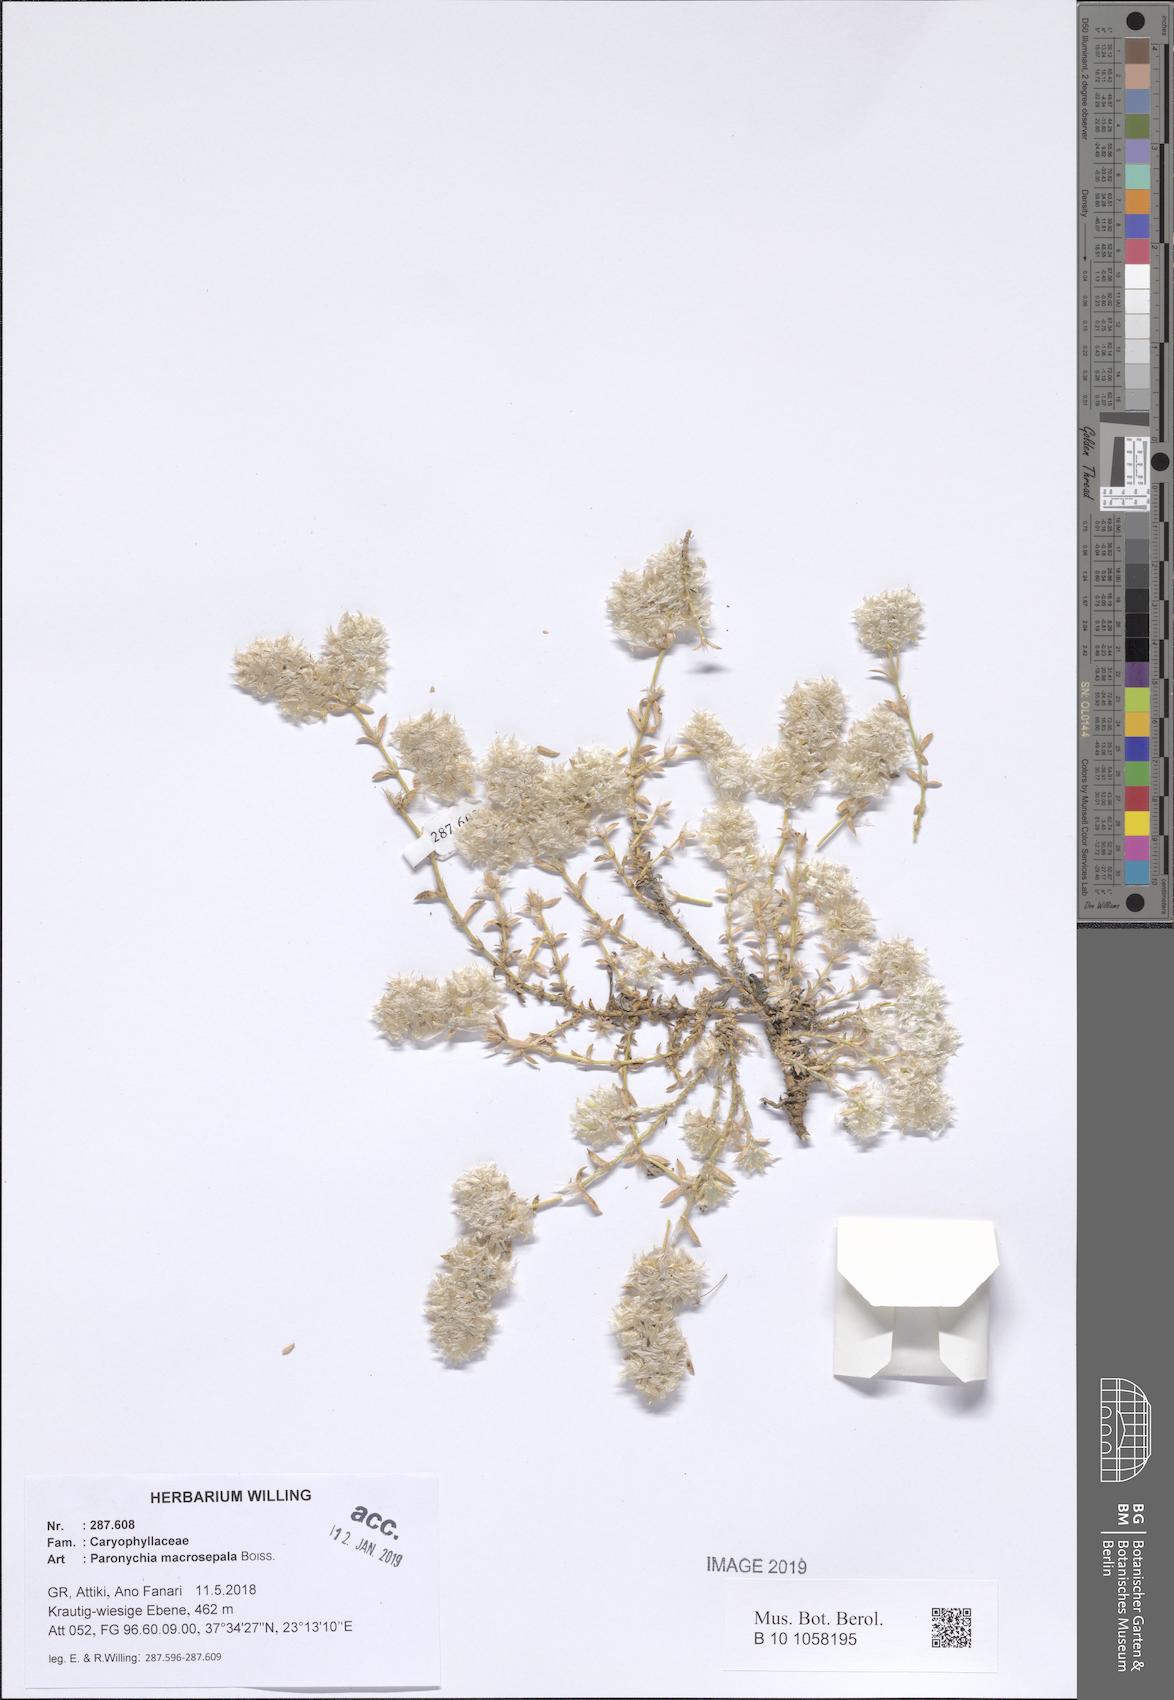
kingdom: Plantae
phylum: Tracheophyta
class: Magnoliopsida
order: Caryophyllales
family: Caryophyllaceae
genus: Paronychia
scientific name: Paronychia macrosepala
